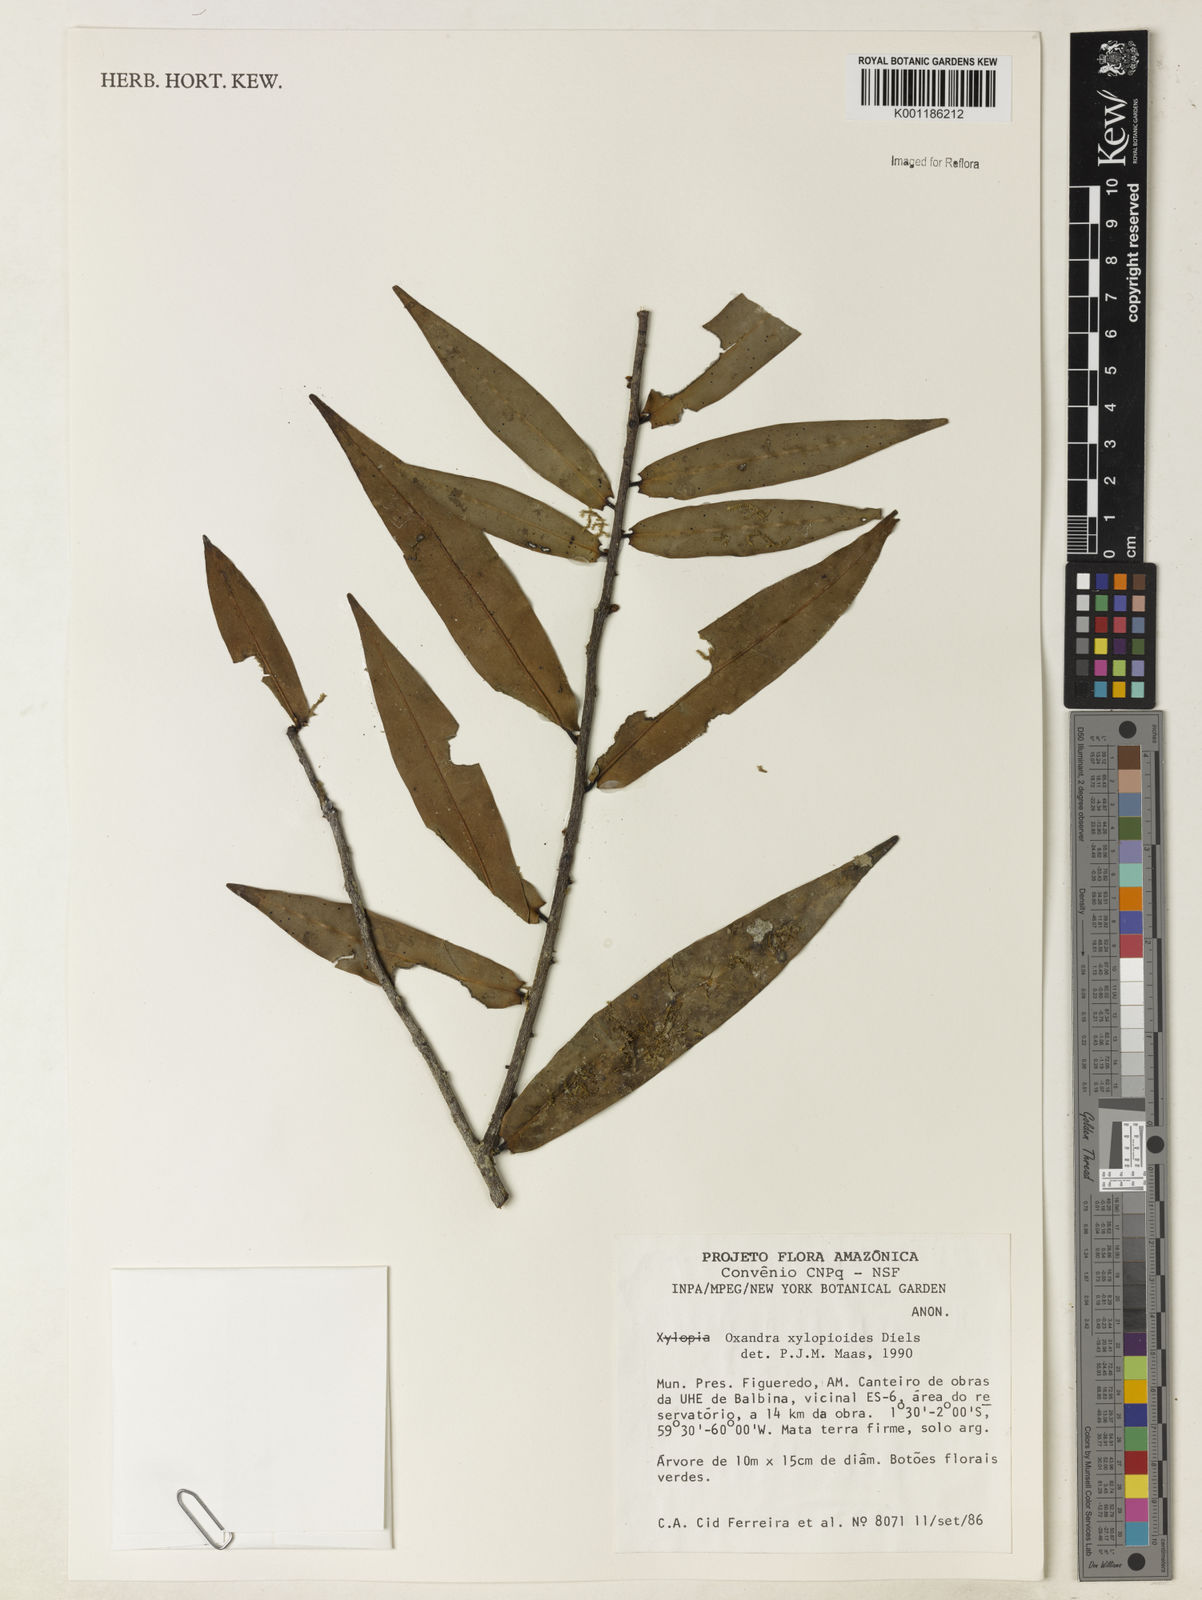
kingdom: Plantae
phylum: Tracheophyta
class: Magnoliopsida
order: Magnoliales
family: Annonaceae
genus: Oxandra
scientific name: Oxandra xylopioides
